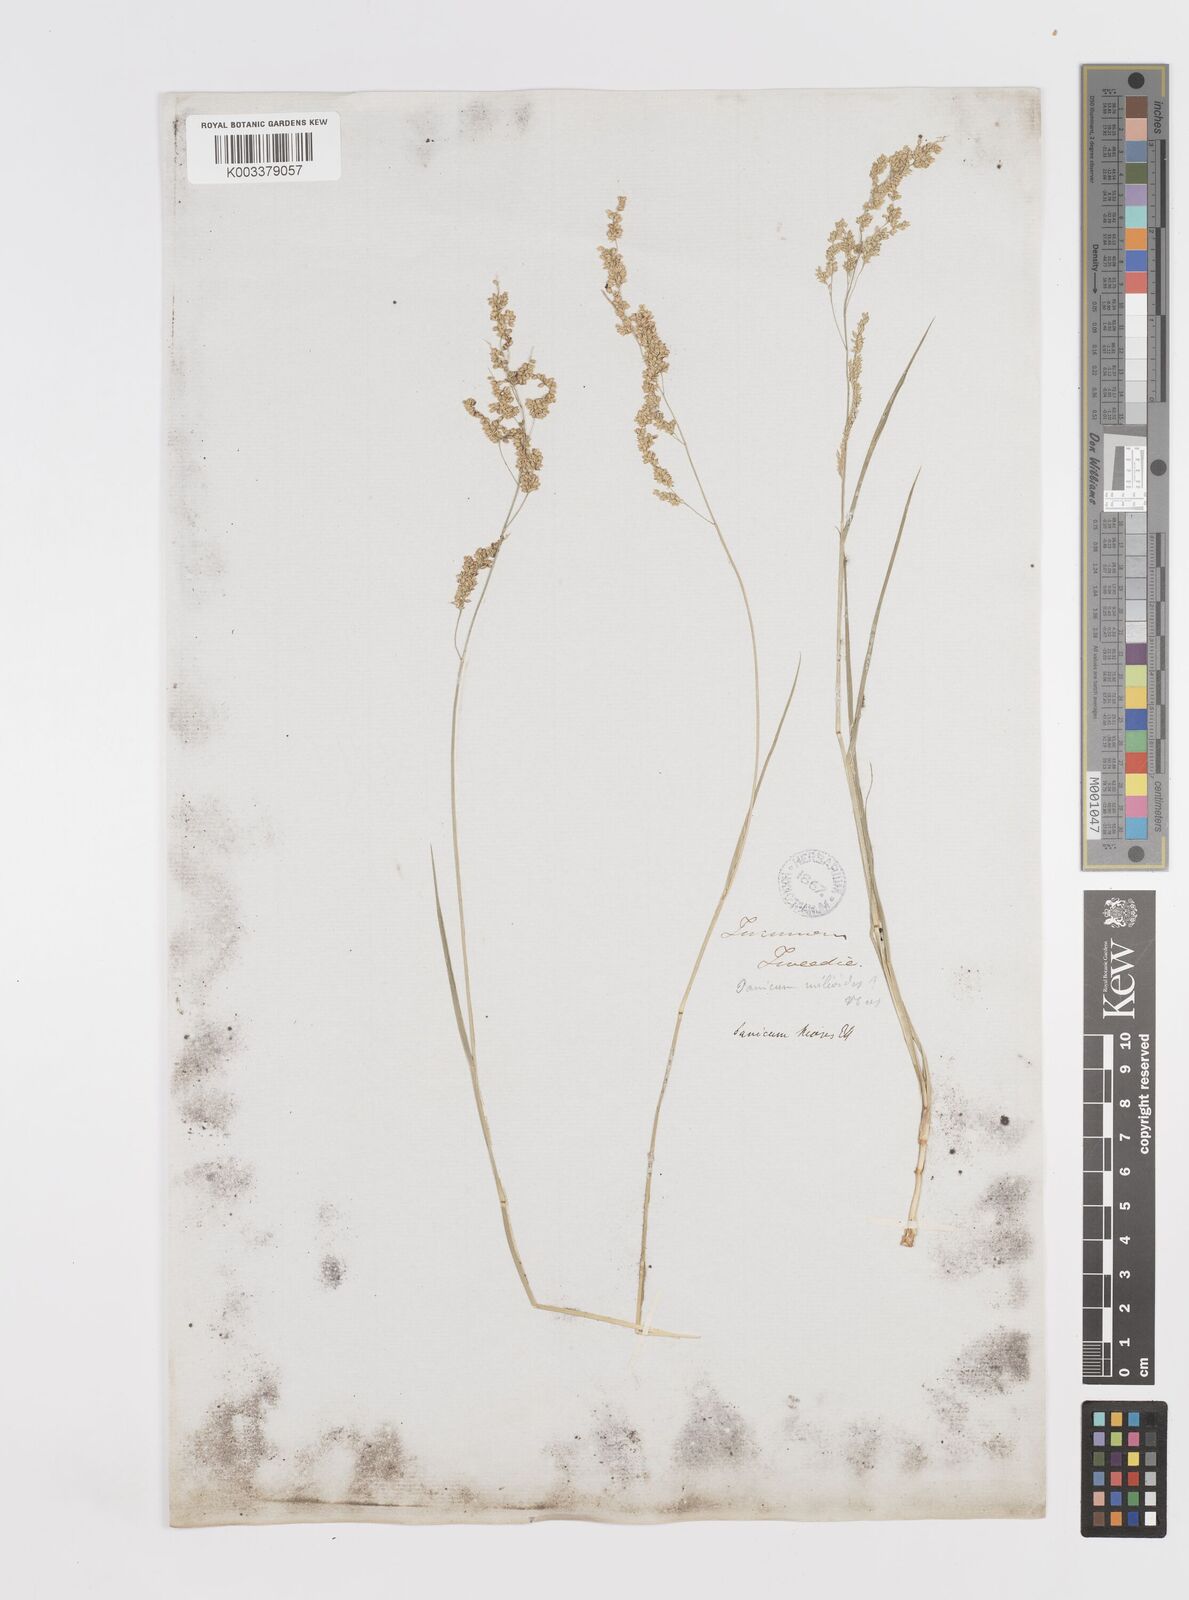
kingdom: Plantae
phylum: Tracheophyta
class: Liliopsida
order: Poales
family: Poaceae
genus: Steinchisma
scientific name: Steinchisma hians
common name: Gaping panic grass
